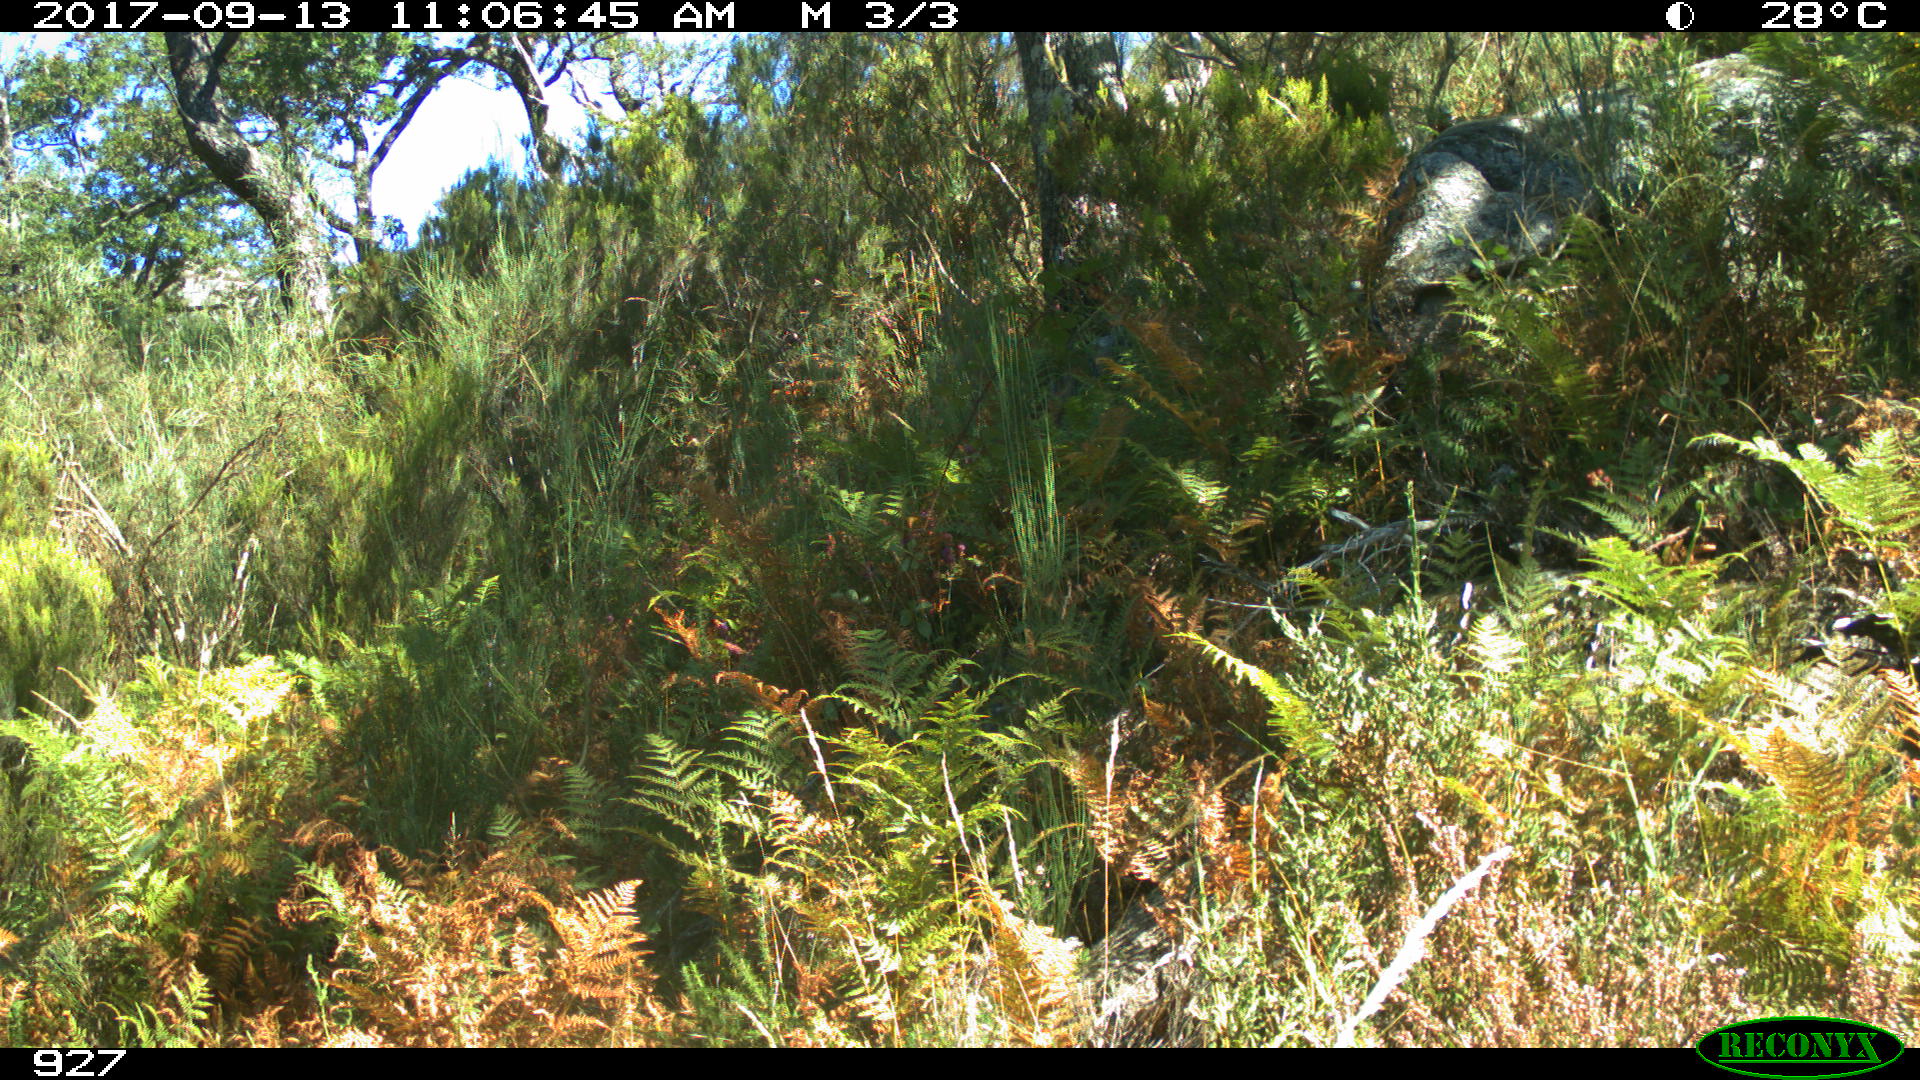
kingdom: Animalia
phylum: Chordata
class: Mammalia
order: Perissodactyla
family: Equidae
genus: Equus
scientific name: Equus caballus
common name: Horse
